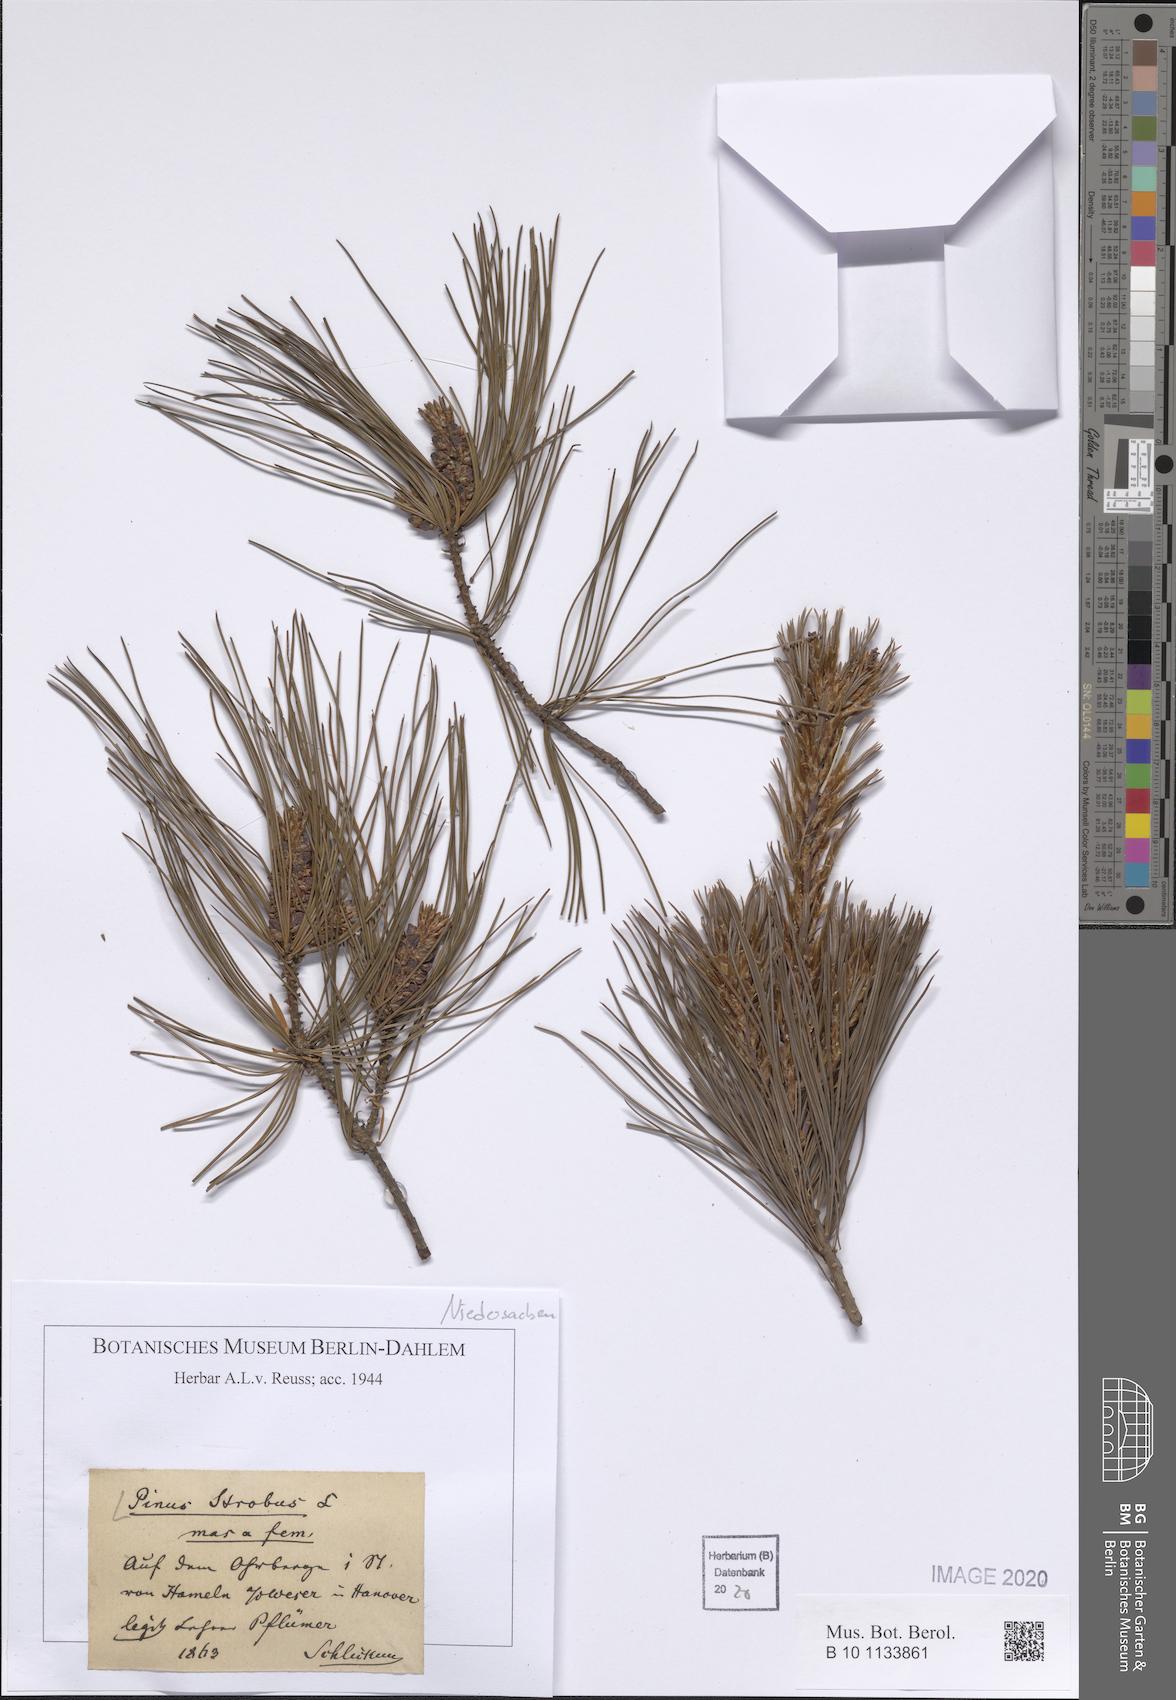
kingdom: Plantae
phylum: Tracheophyta
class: Pinopsida
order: Pinales
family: Pinaceae
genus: Pinus
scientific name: Pinus strobus
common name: Weymouth pine
